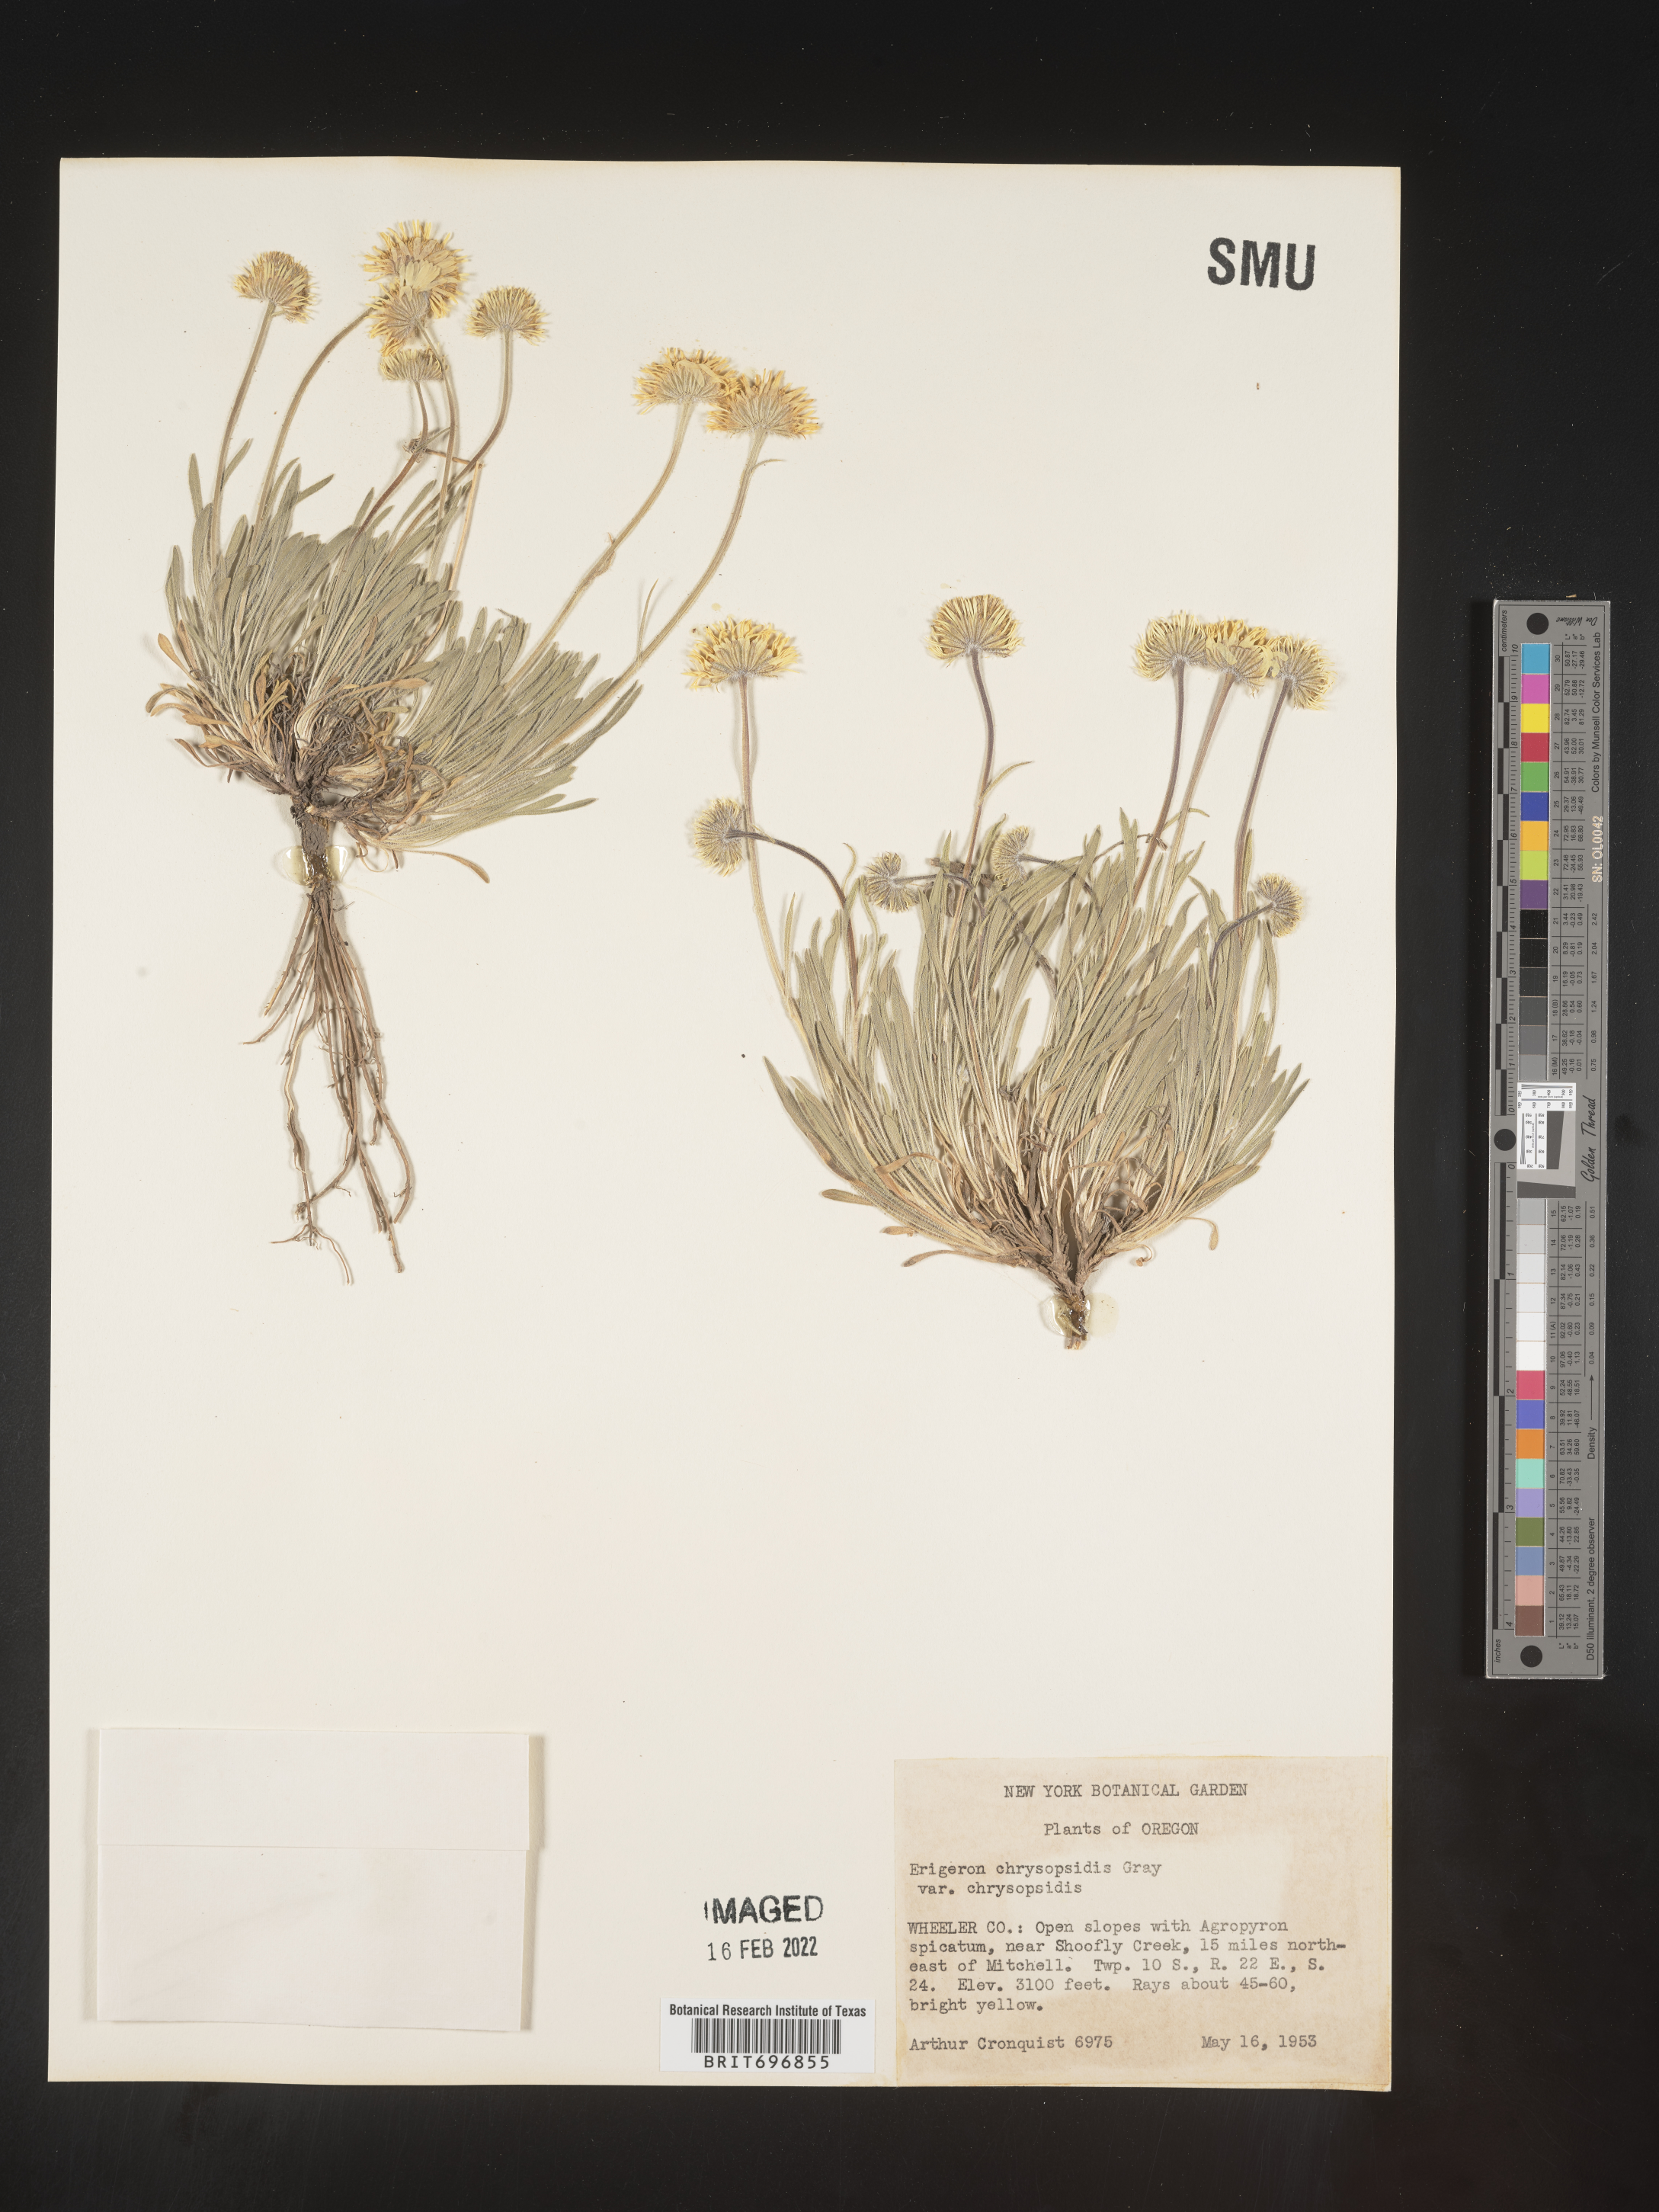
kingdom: Plantae
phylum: Tracheophyta
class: Magnoliopsida
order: Asterales
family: Asteraceae
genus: Erigeron
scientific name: Erigeron chrysopsidis
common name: Dwarf yellow fleabane
